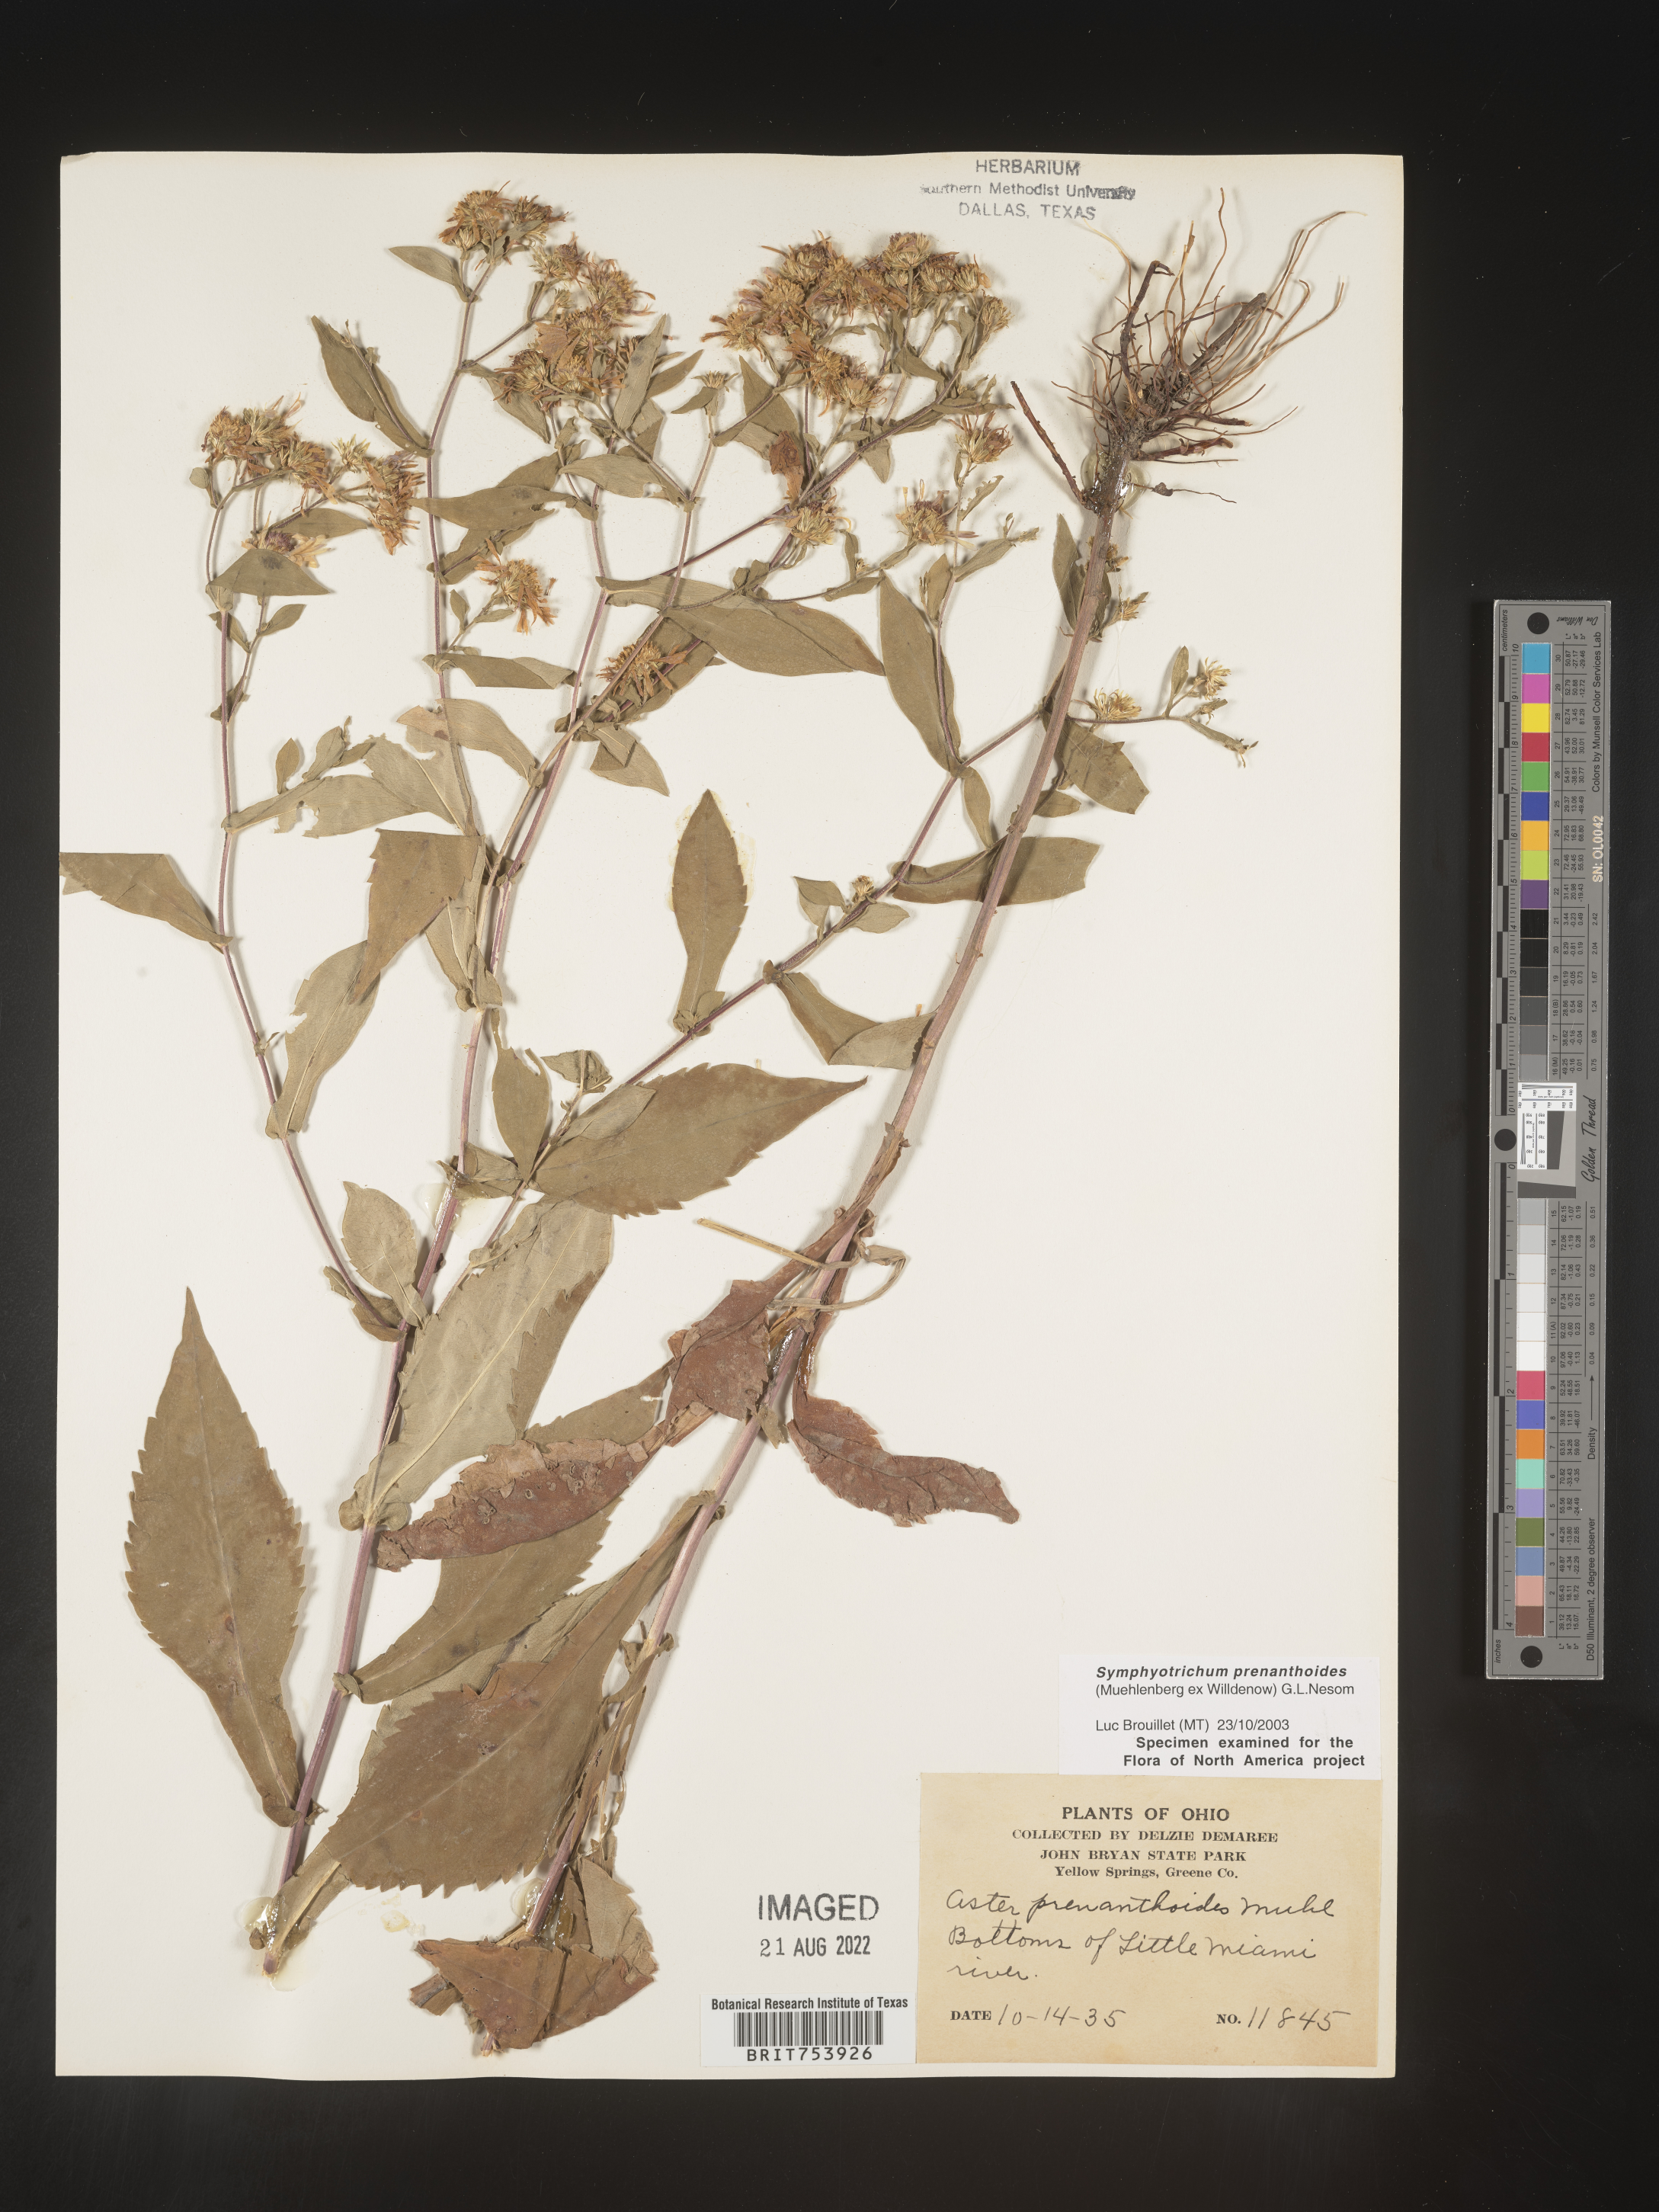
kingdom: Plantae
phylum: Tracheophyta
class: Magnoliopsida
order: Asterales
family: Asteraceae
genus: Symphyotrichum
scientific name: Symphyotrichum prenanthoides
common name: Crooked-stem aster
